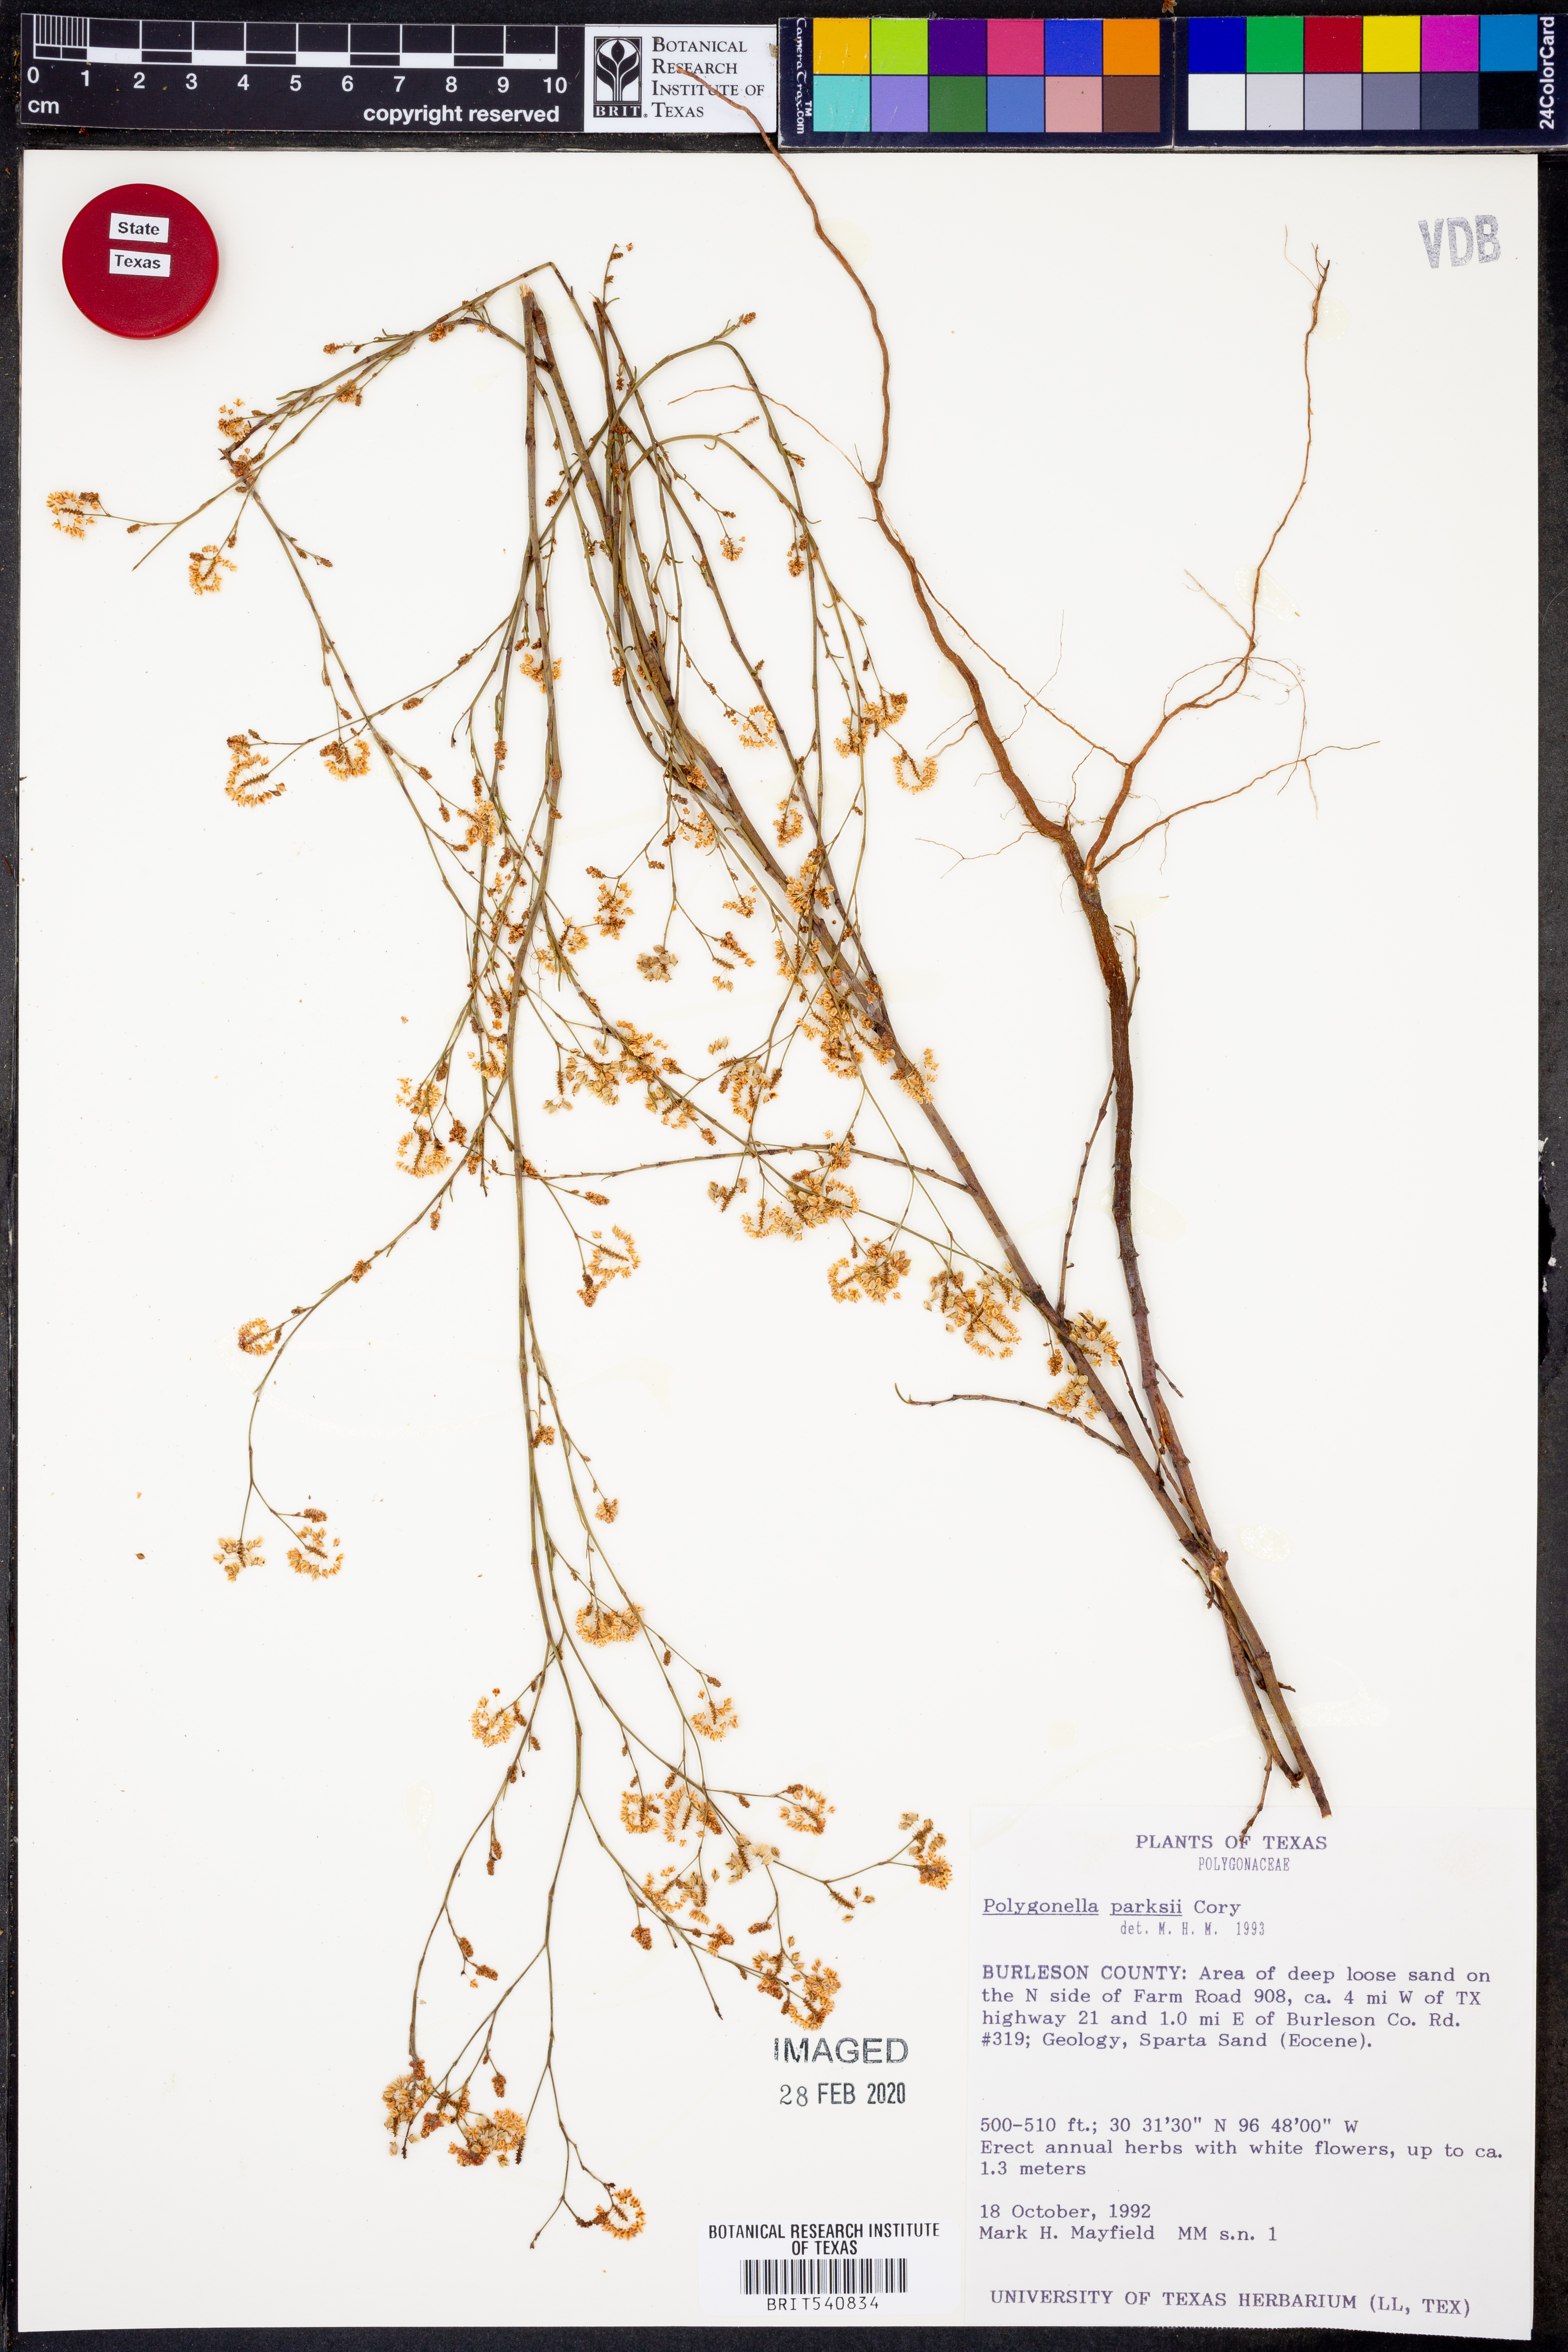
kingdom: Plantae
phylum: Tracheophyta
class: Magnoliopsida
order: Caryophyllales
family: Polygonaceae
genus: Polygonella
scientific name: Polygonella parksii
